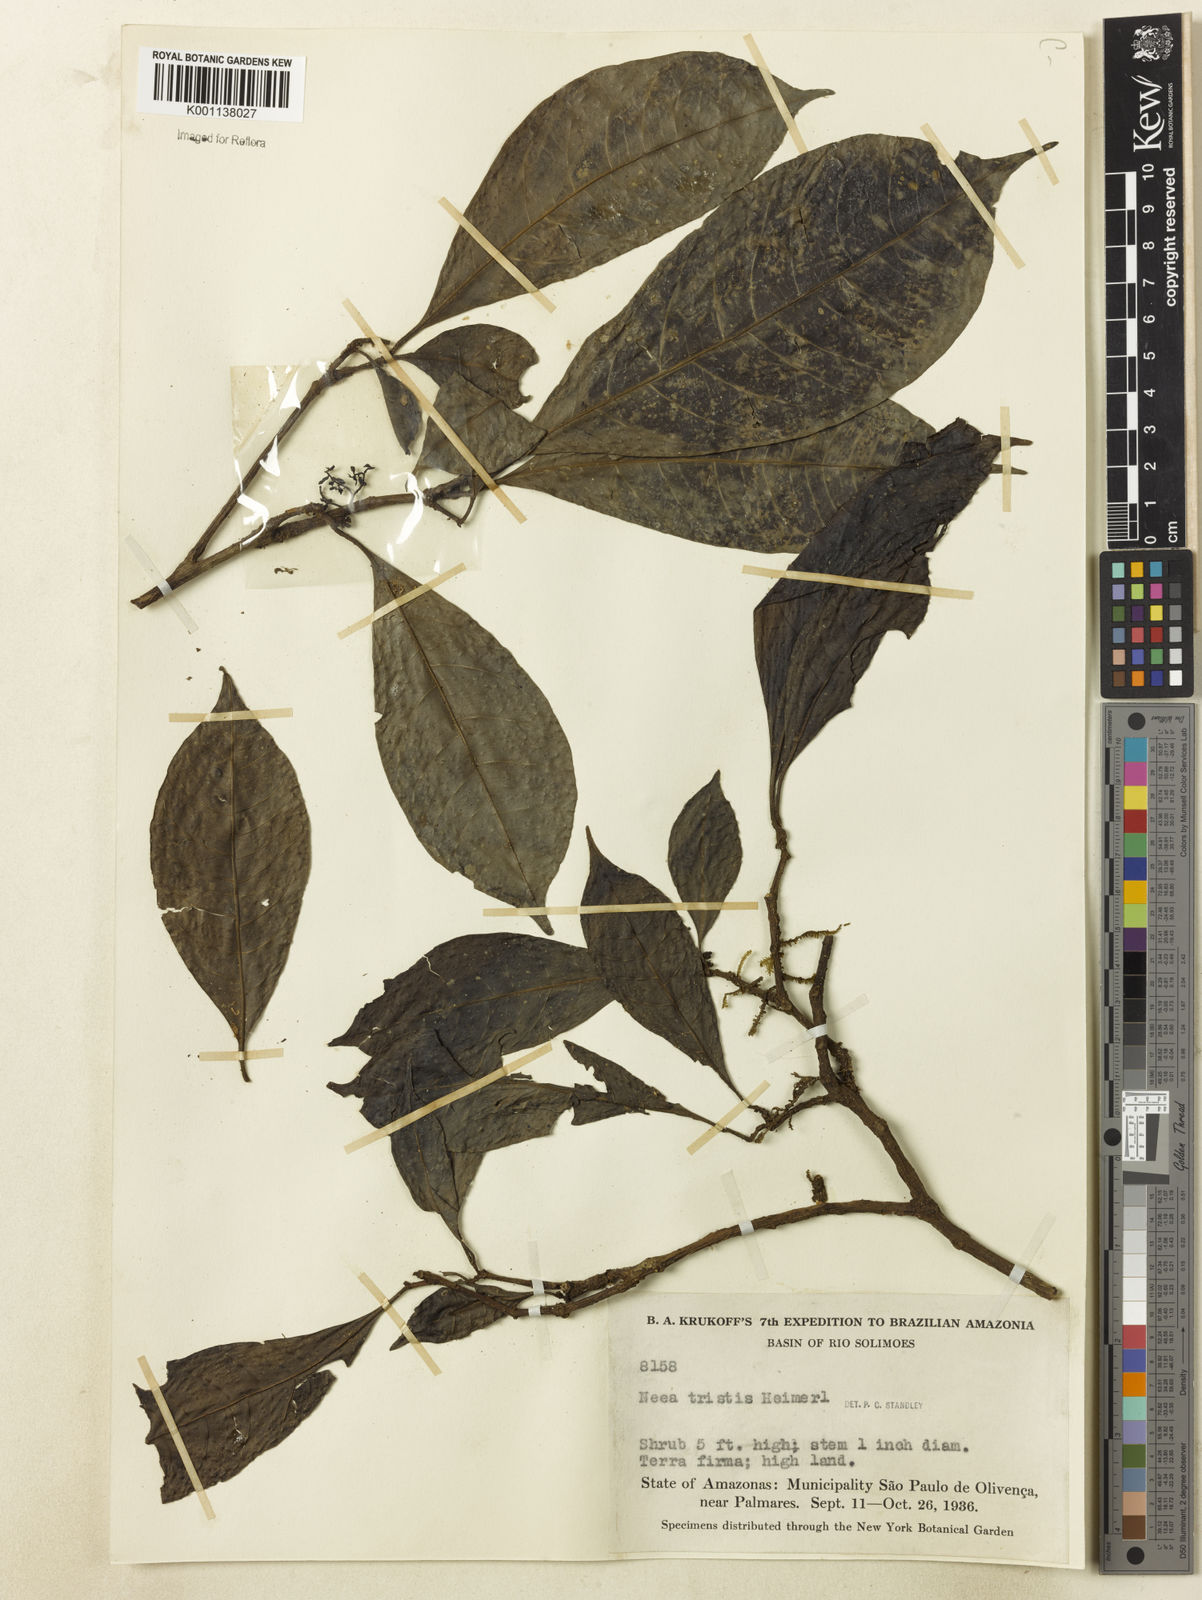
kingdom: Plantae
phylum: Tracheophyta
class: Magnoliopsida
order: Caryophyllales
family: Nyctaginaceae
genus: Neea
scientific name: Neea tristis
